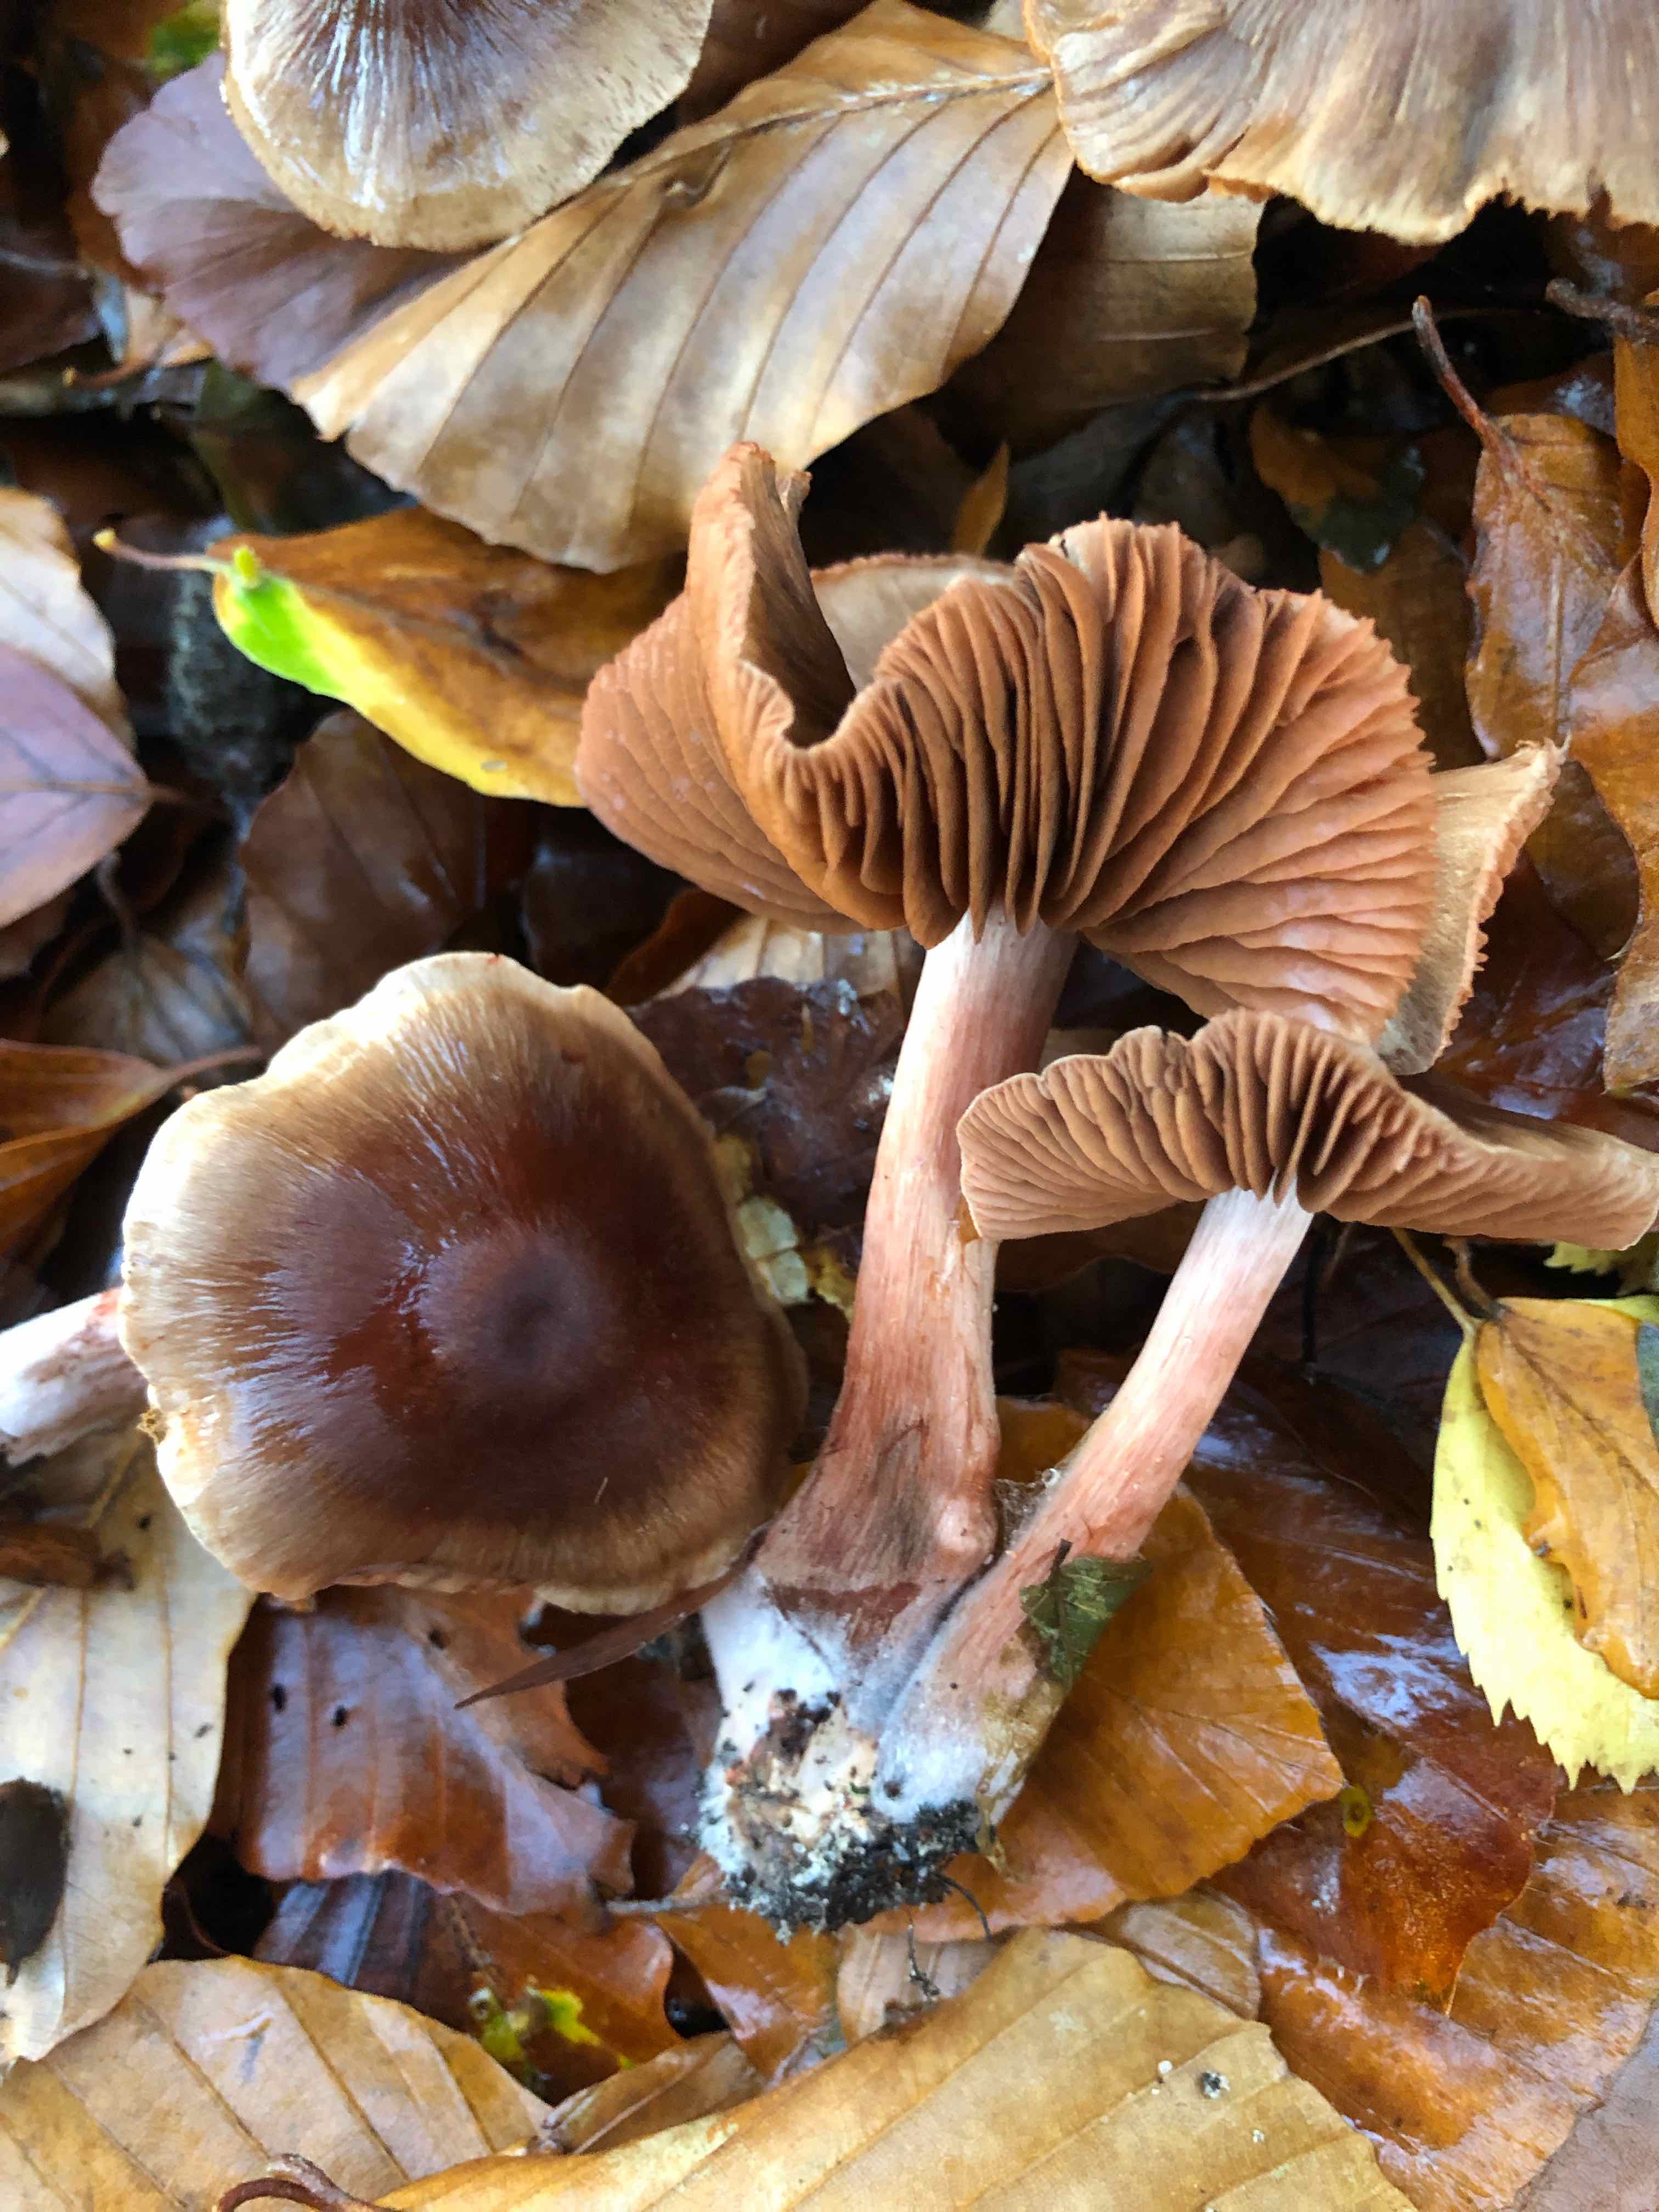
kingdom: Fungi
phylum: Basidiomycota
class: Agaricomycetes
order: Agaricales
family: Cortinariaceae
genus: Cortinarius
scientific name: Cortinarius danicus
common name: dansk slørhat
